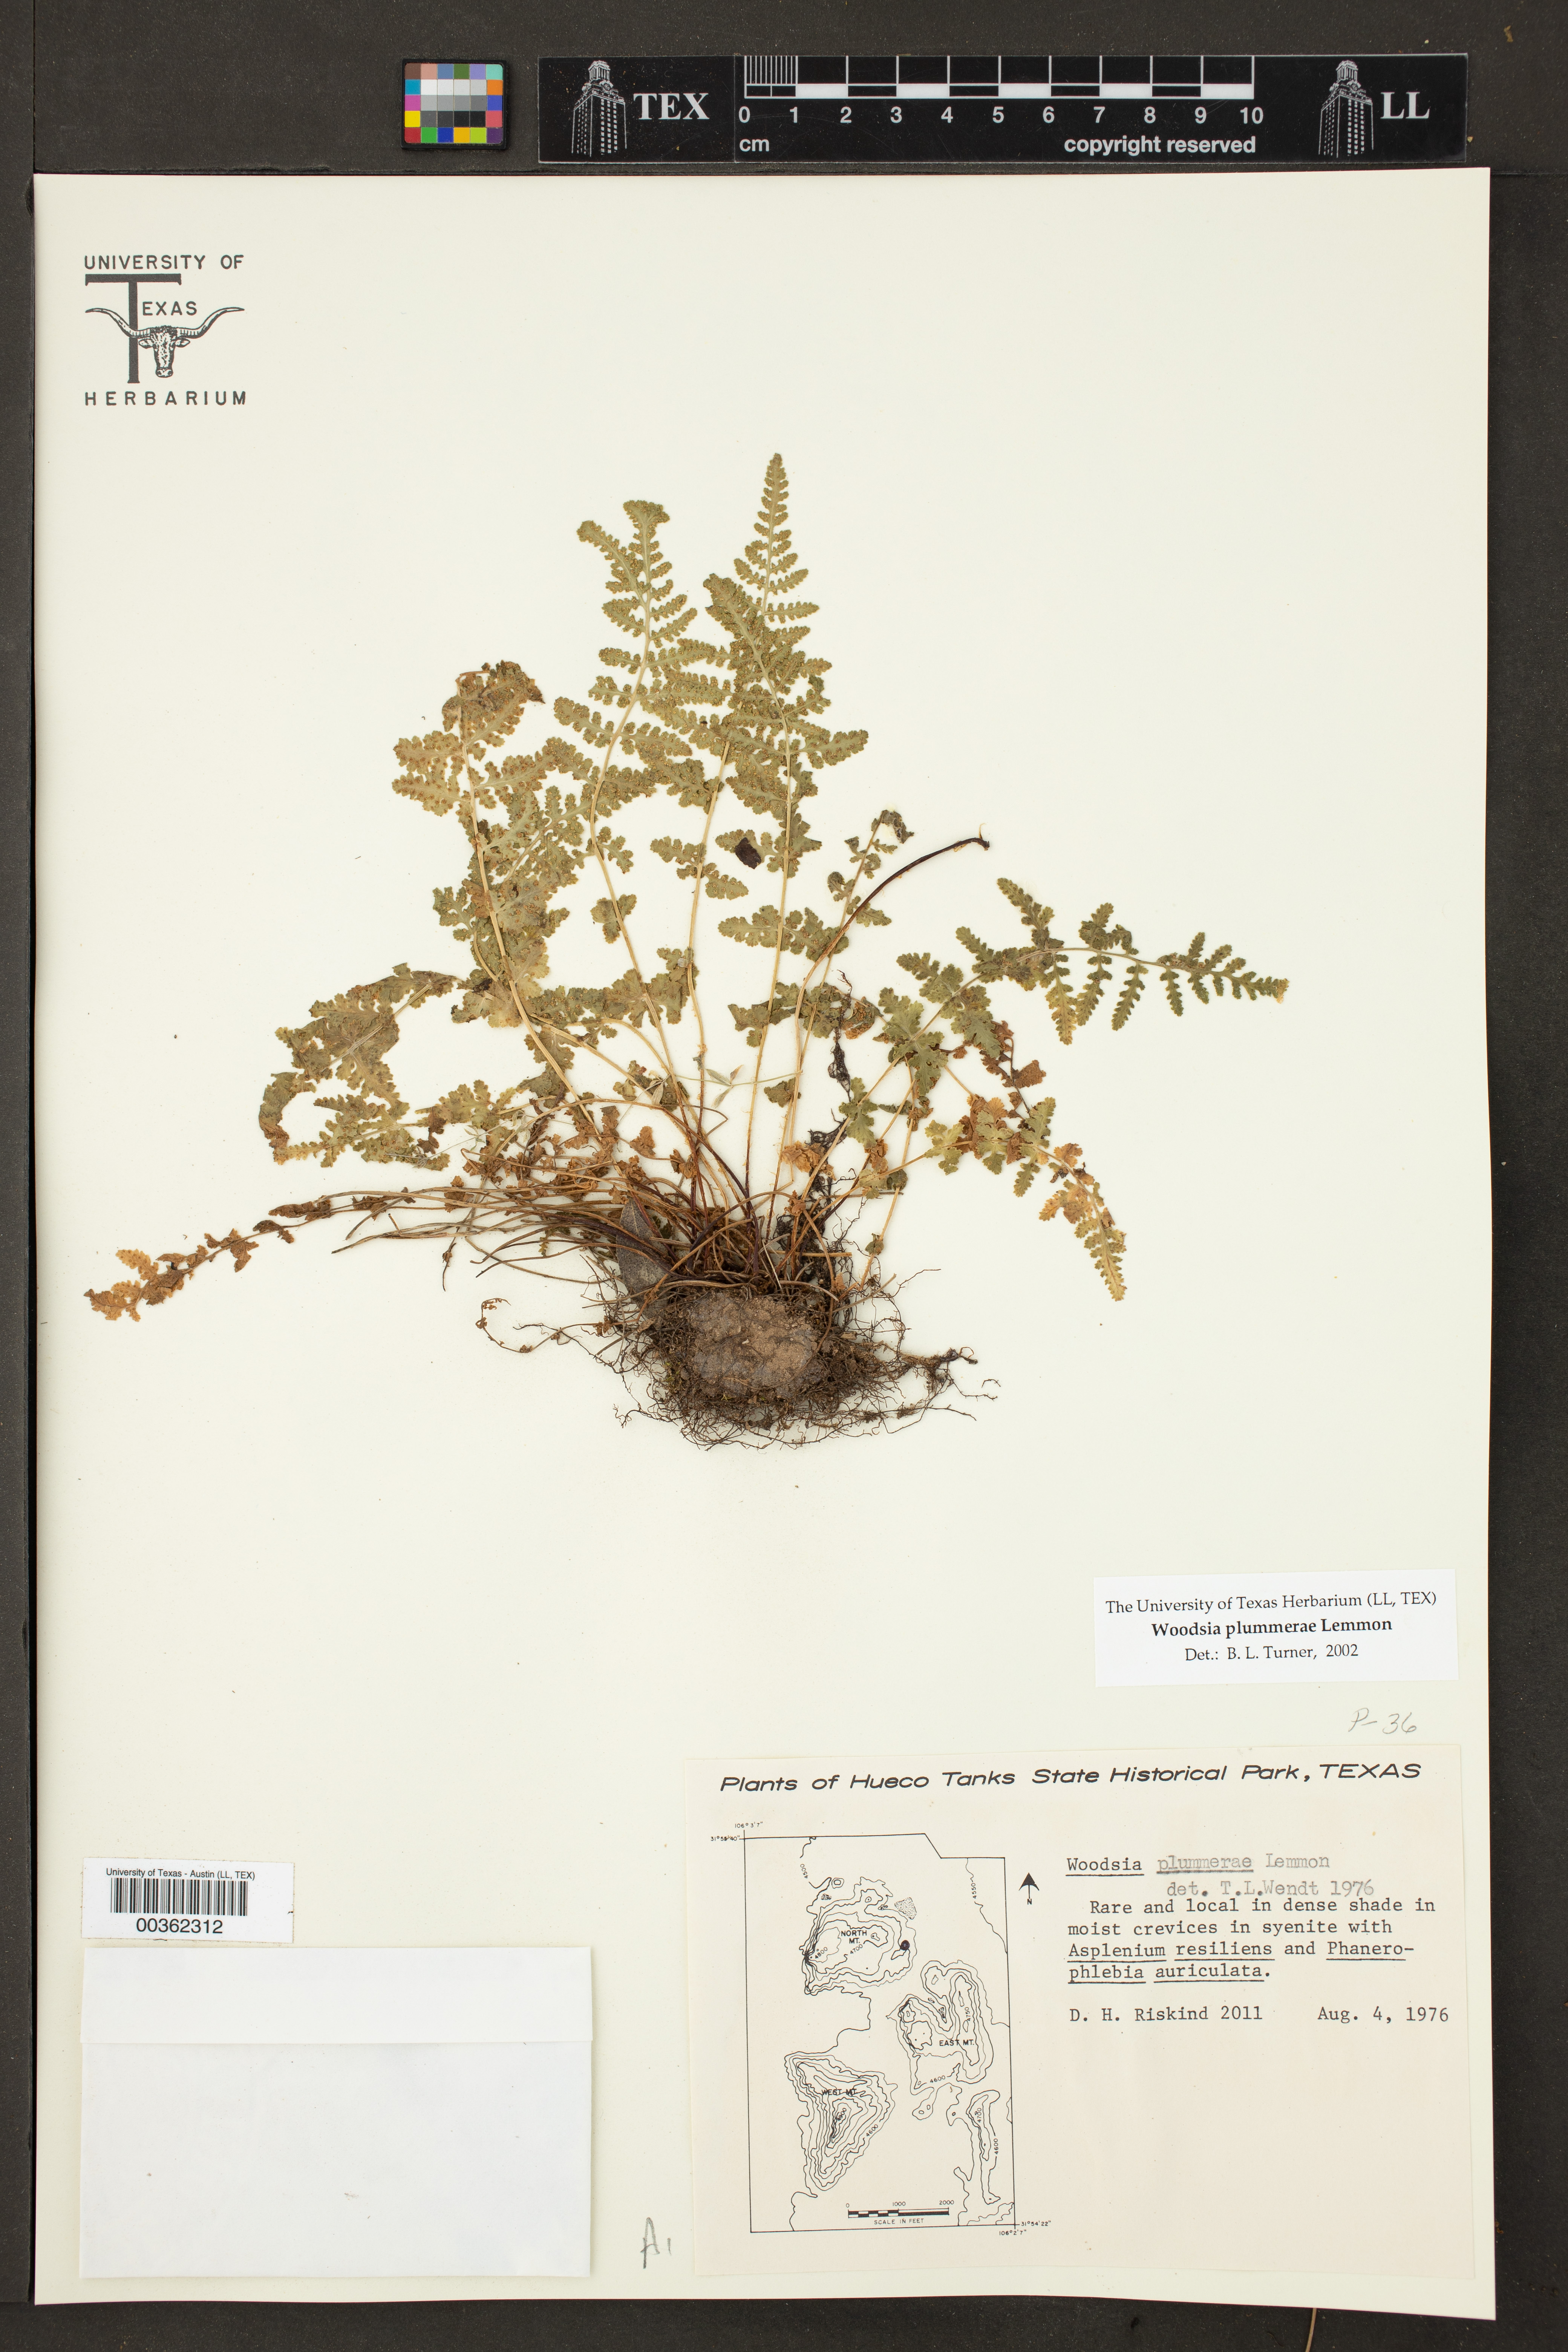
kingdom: Plantae
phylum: Tracheophyta
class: Polypodiopsida
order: Polypodiales
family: Woodsiaceae
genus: Physematium
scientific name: Physematium plummerae
